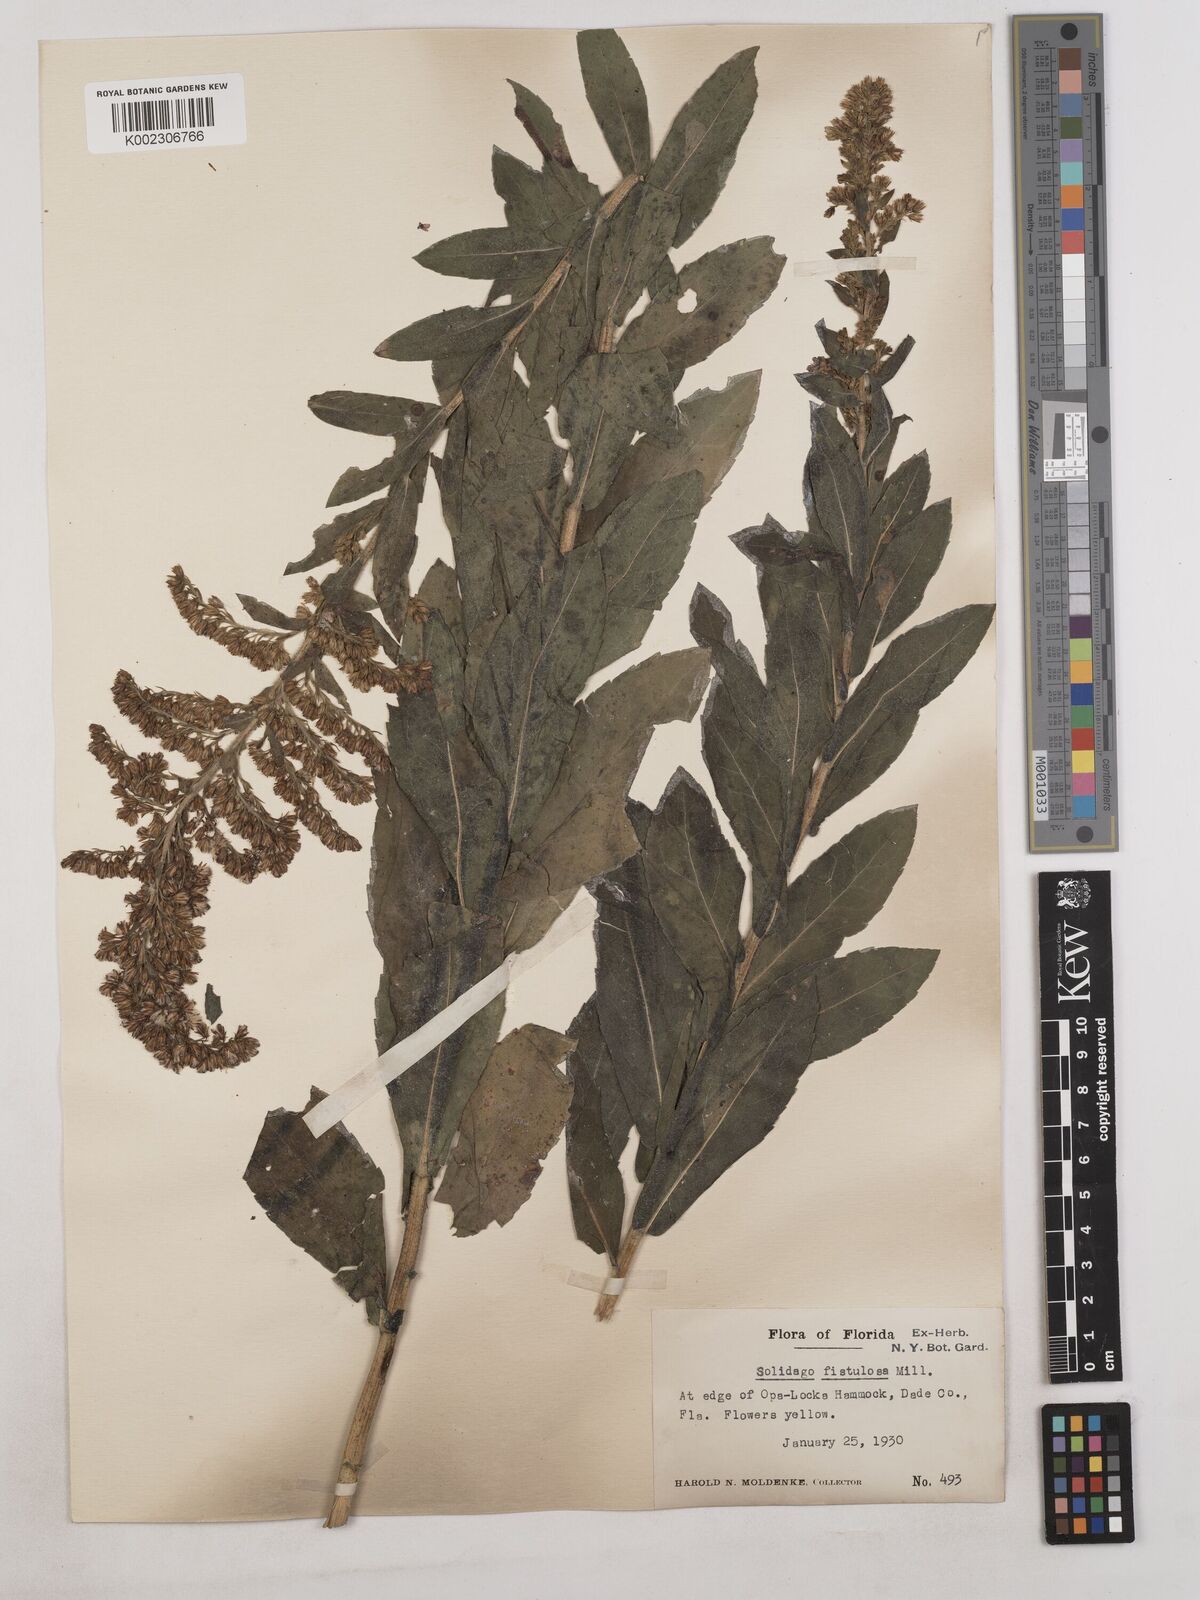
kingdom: Plantae
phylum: Tracheophyta
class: Magnoliopsida
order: Asterales
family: Asteraceae
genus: Solidago
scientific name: Solidago fistulosa
